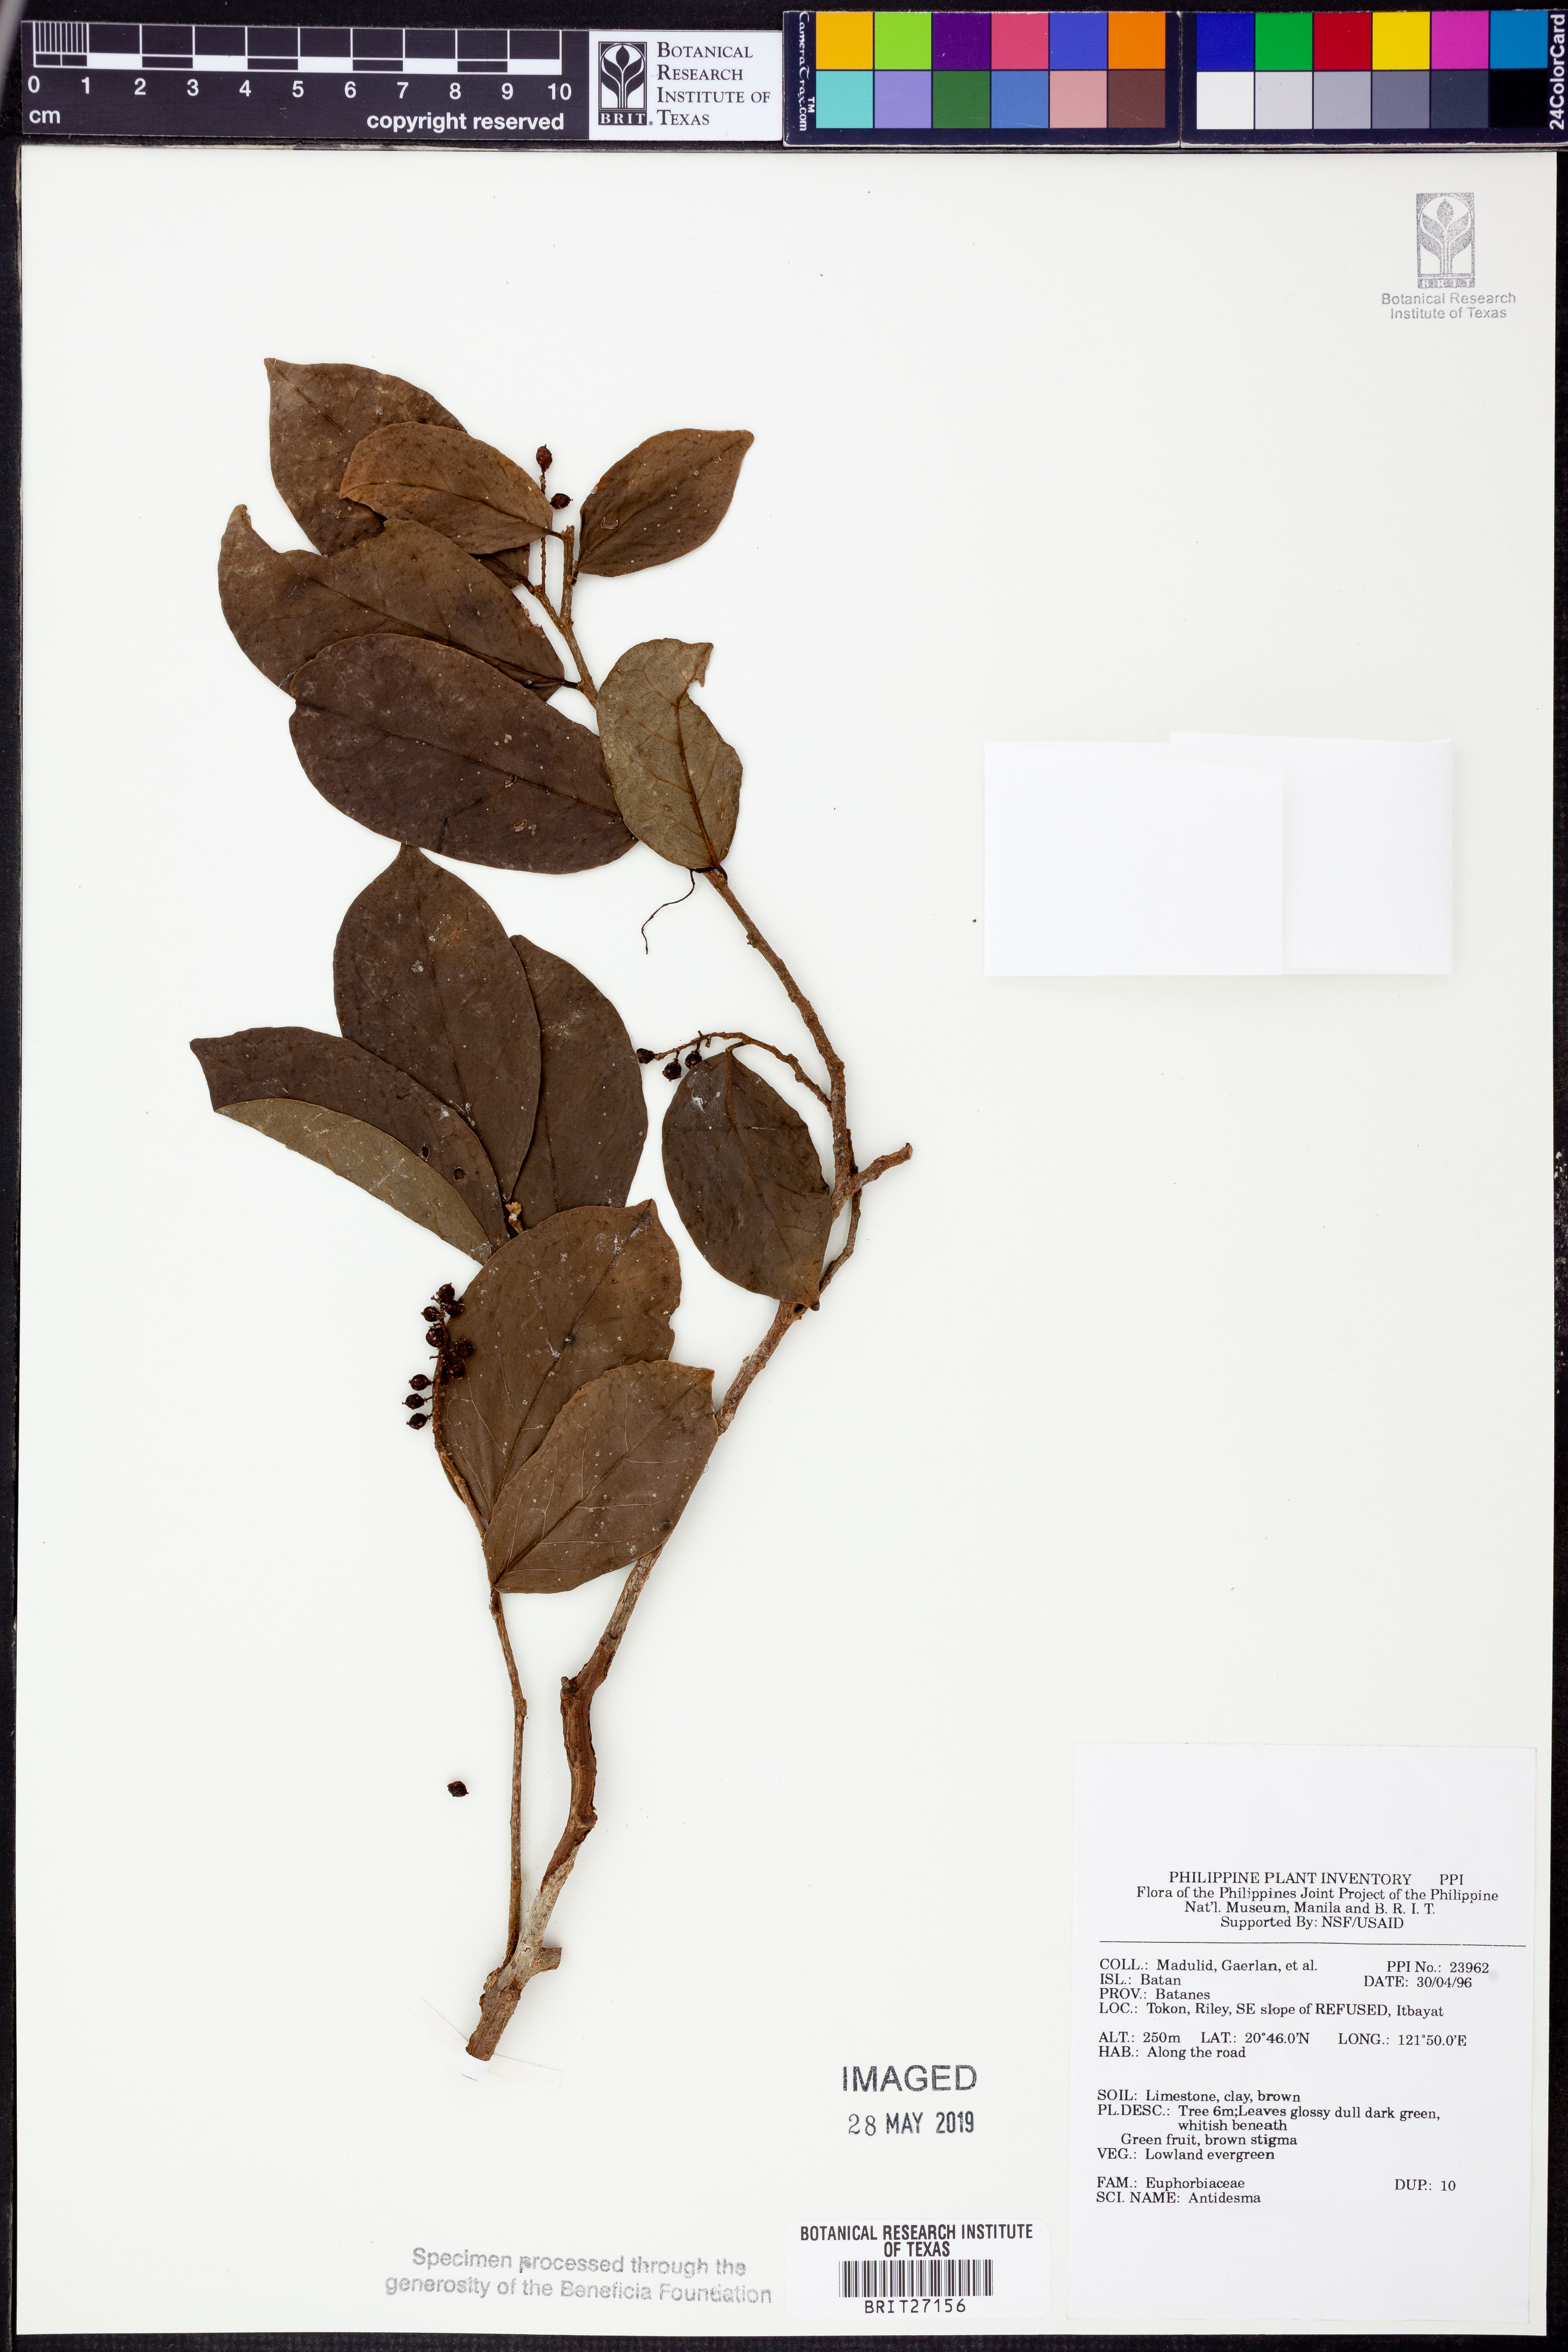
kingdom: Plantae
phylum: Tracheophyta
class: Magnoliopsida
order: Malpighiales
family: Phyllanthaceae
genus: Antidesma
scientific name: Antidesma
